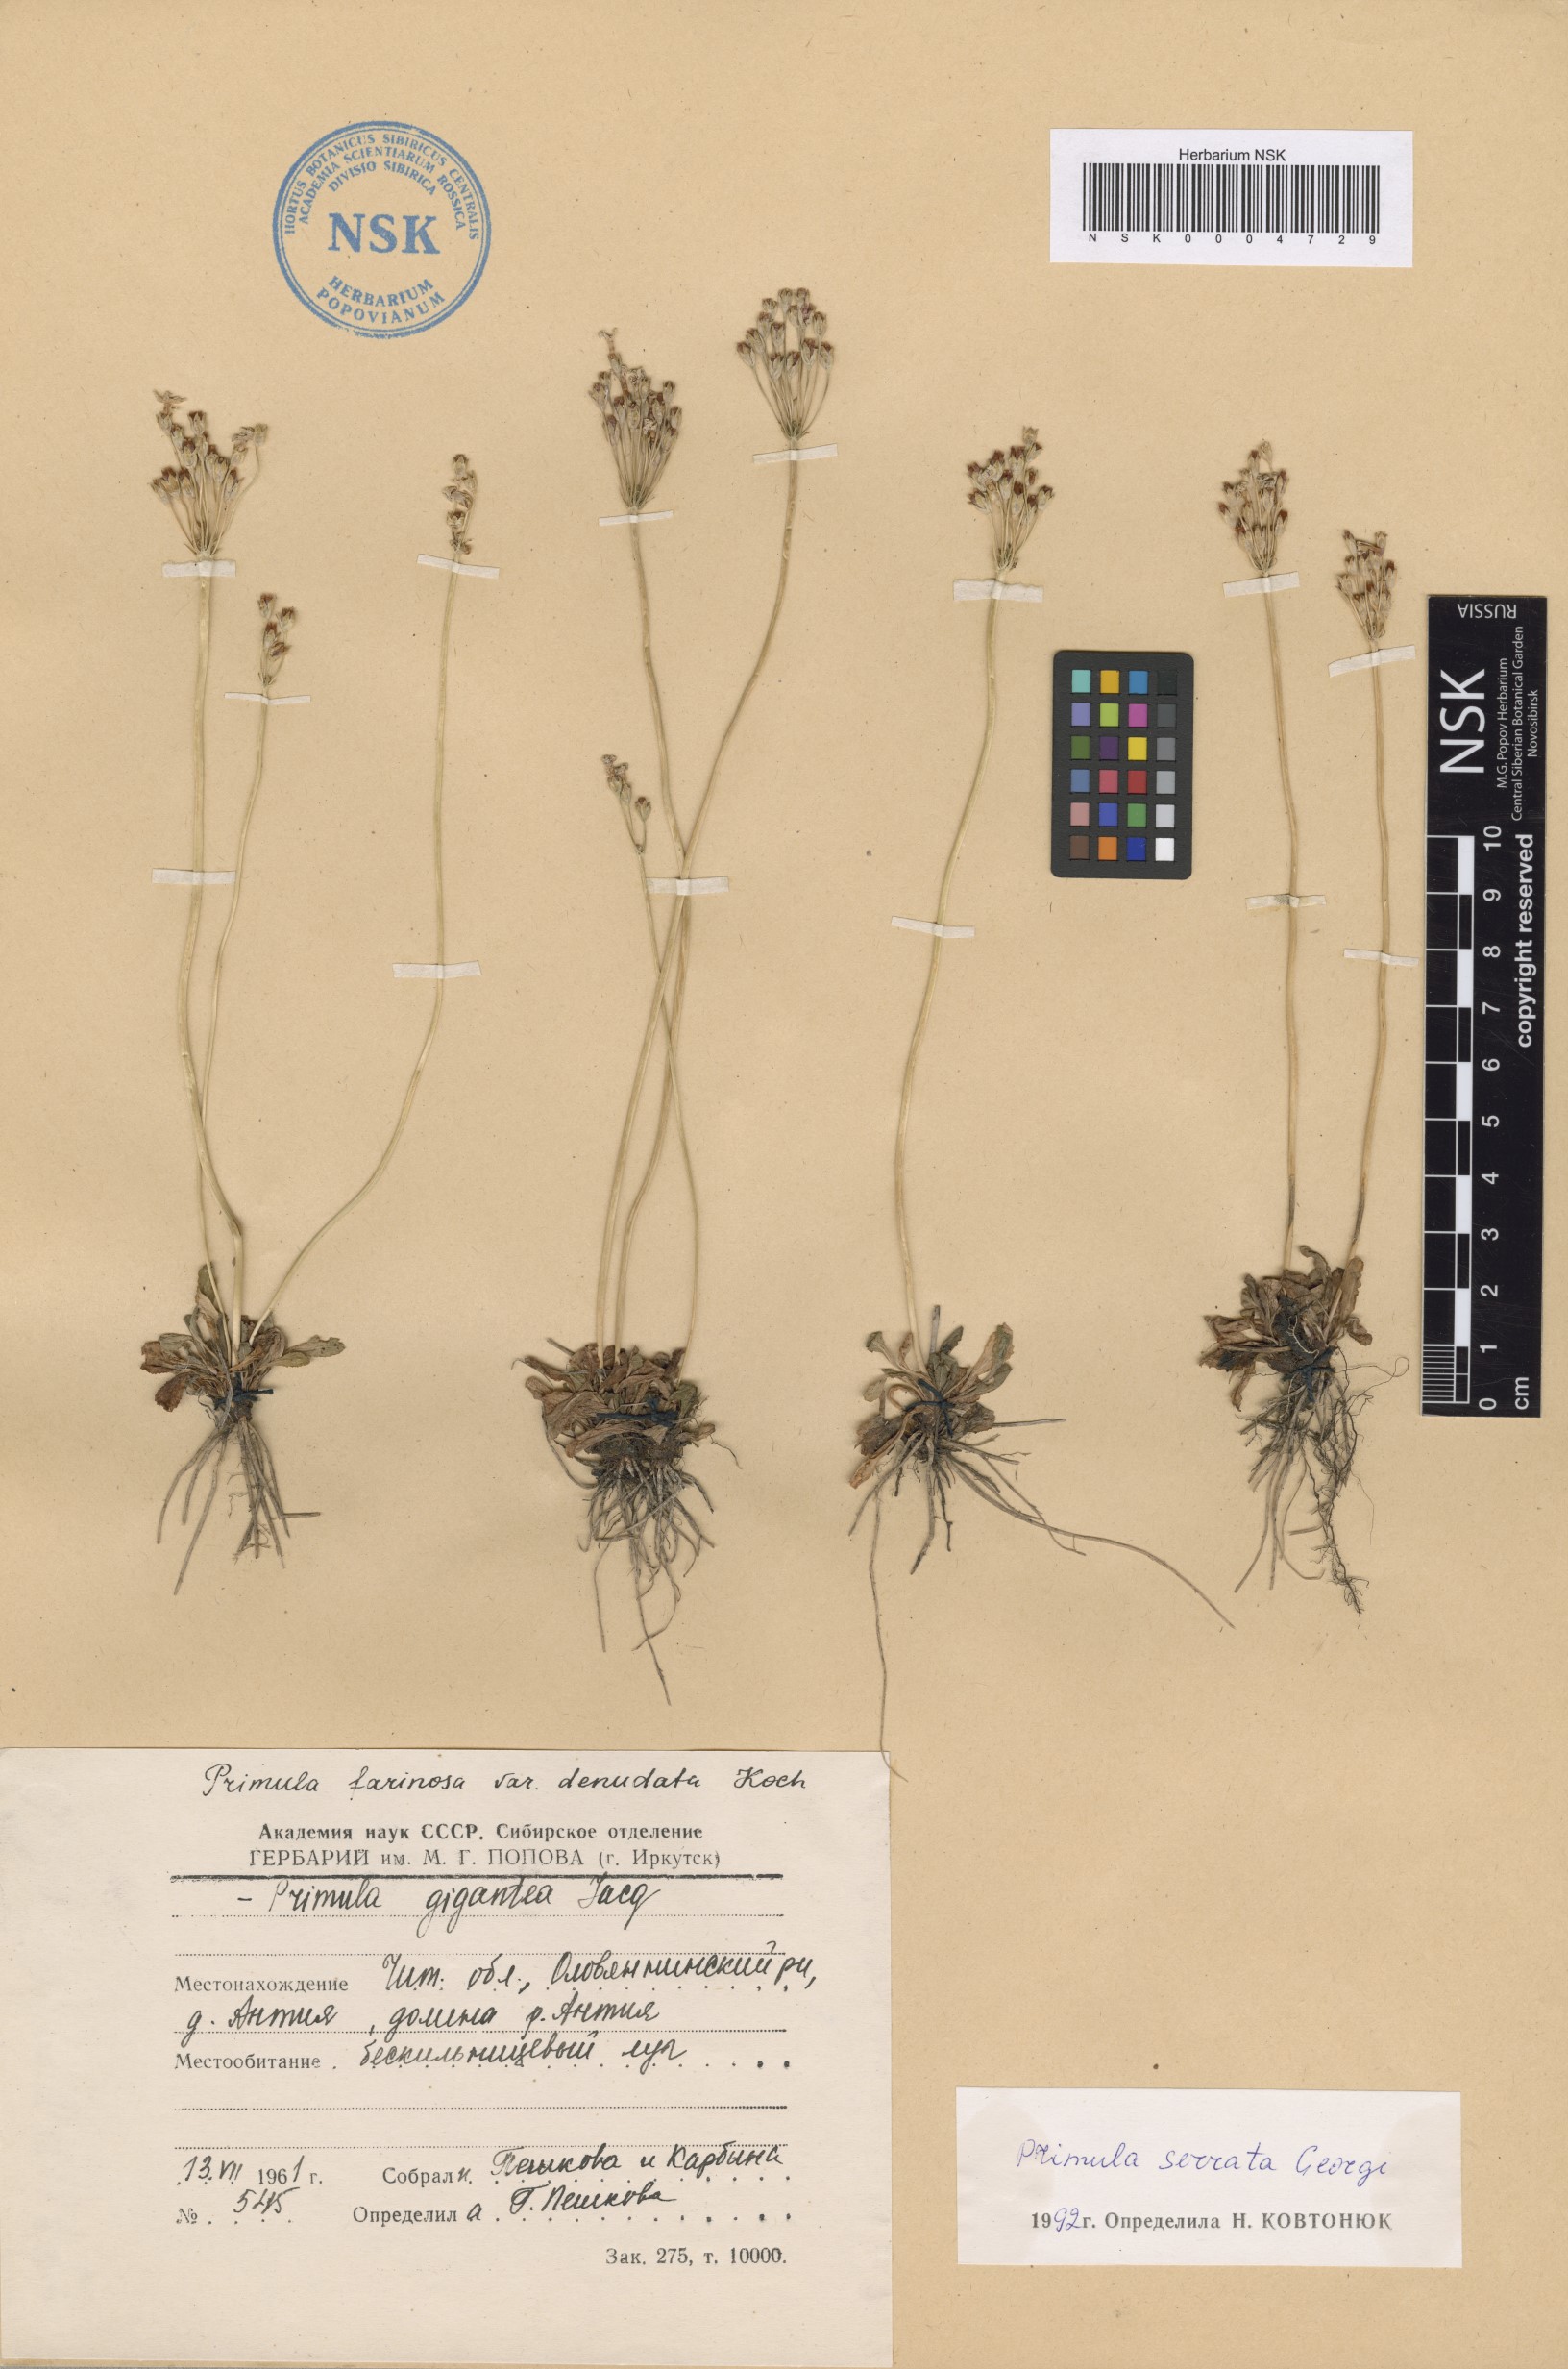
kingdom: Plantae
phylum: Tracheophyta
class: Magnoliopsida
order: Ericales
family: Primulaceae
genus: Primula
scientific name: Primula serrata
